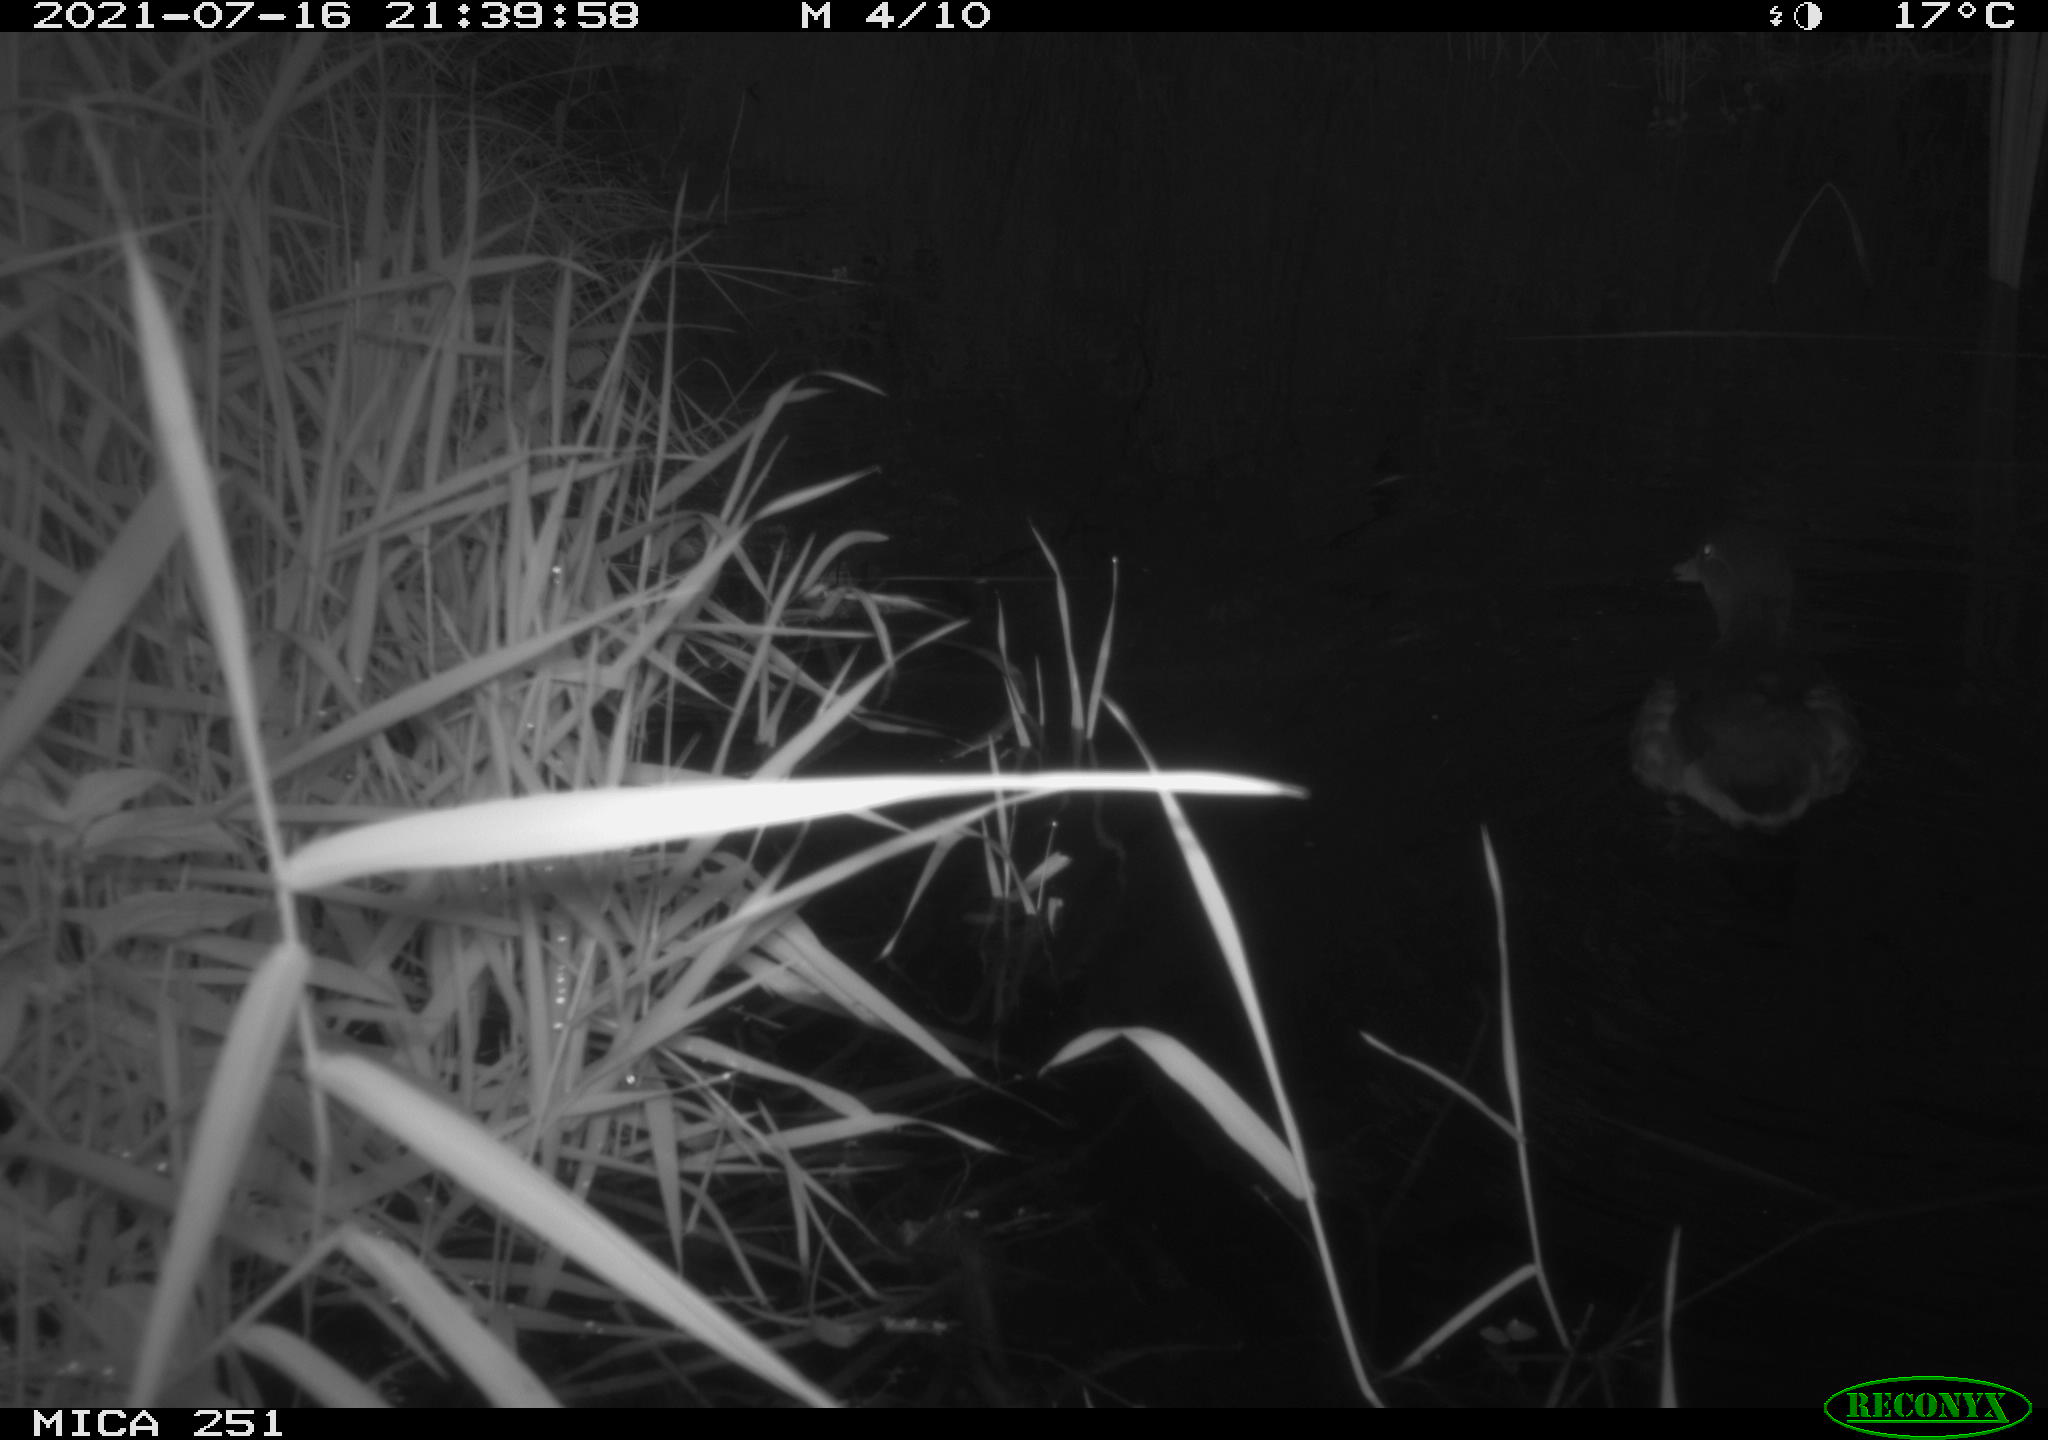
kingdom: Animalia
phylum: Chordata
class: Aves
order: Anseriformes
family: Anatidae
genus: Aix
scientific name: Aix galericulata
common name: Mandarin duck
